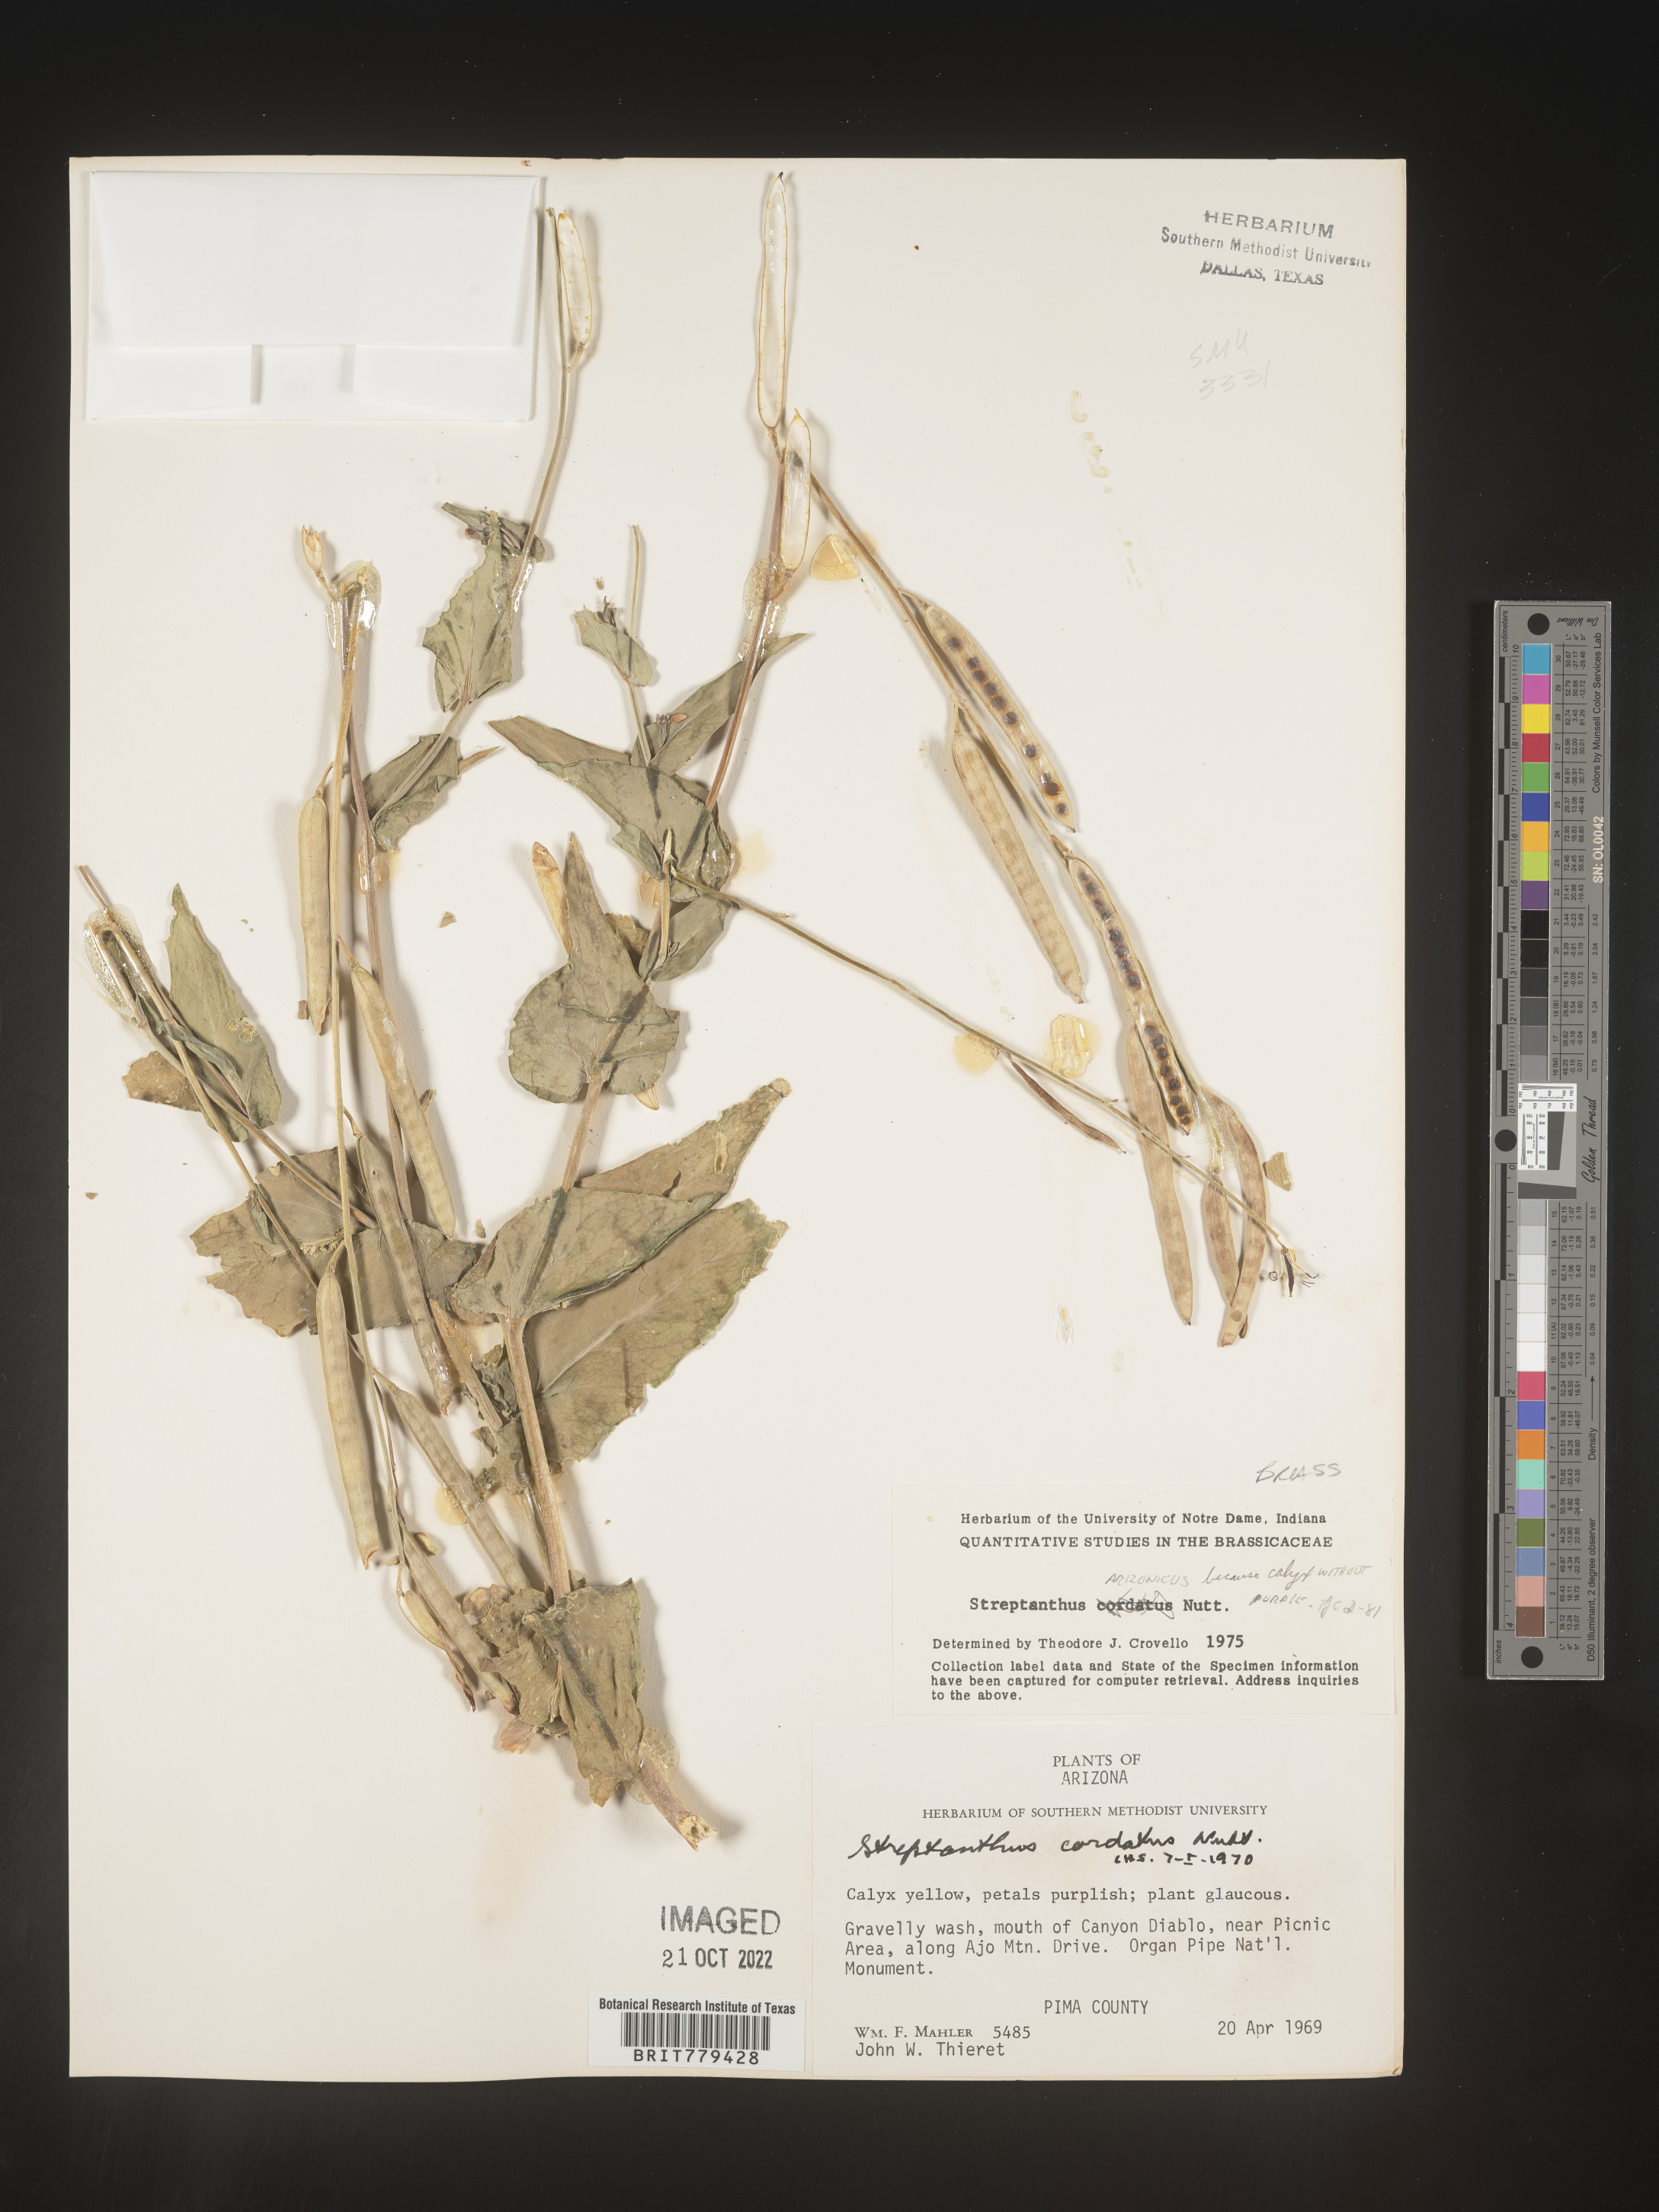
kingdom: Plantae
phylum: Tracheophyta
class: Magnoliopsida
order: Brassicales
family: Brassicaceae
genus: Streptanthus
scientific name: Streptanthus
